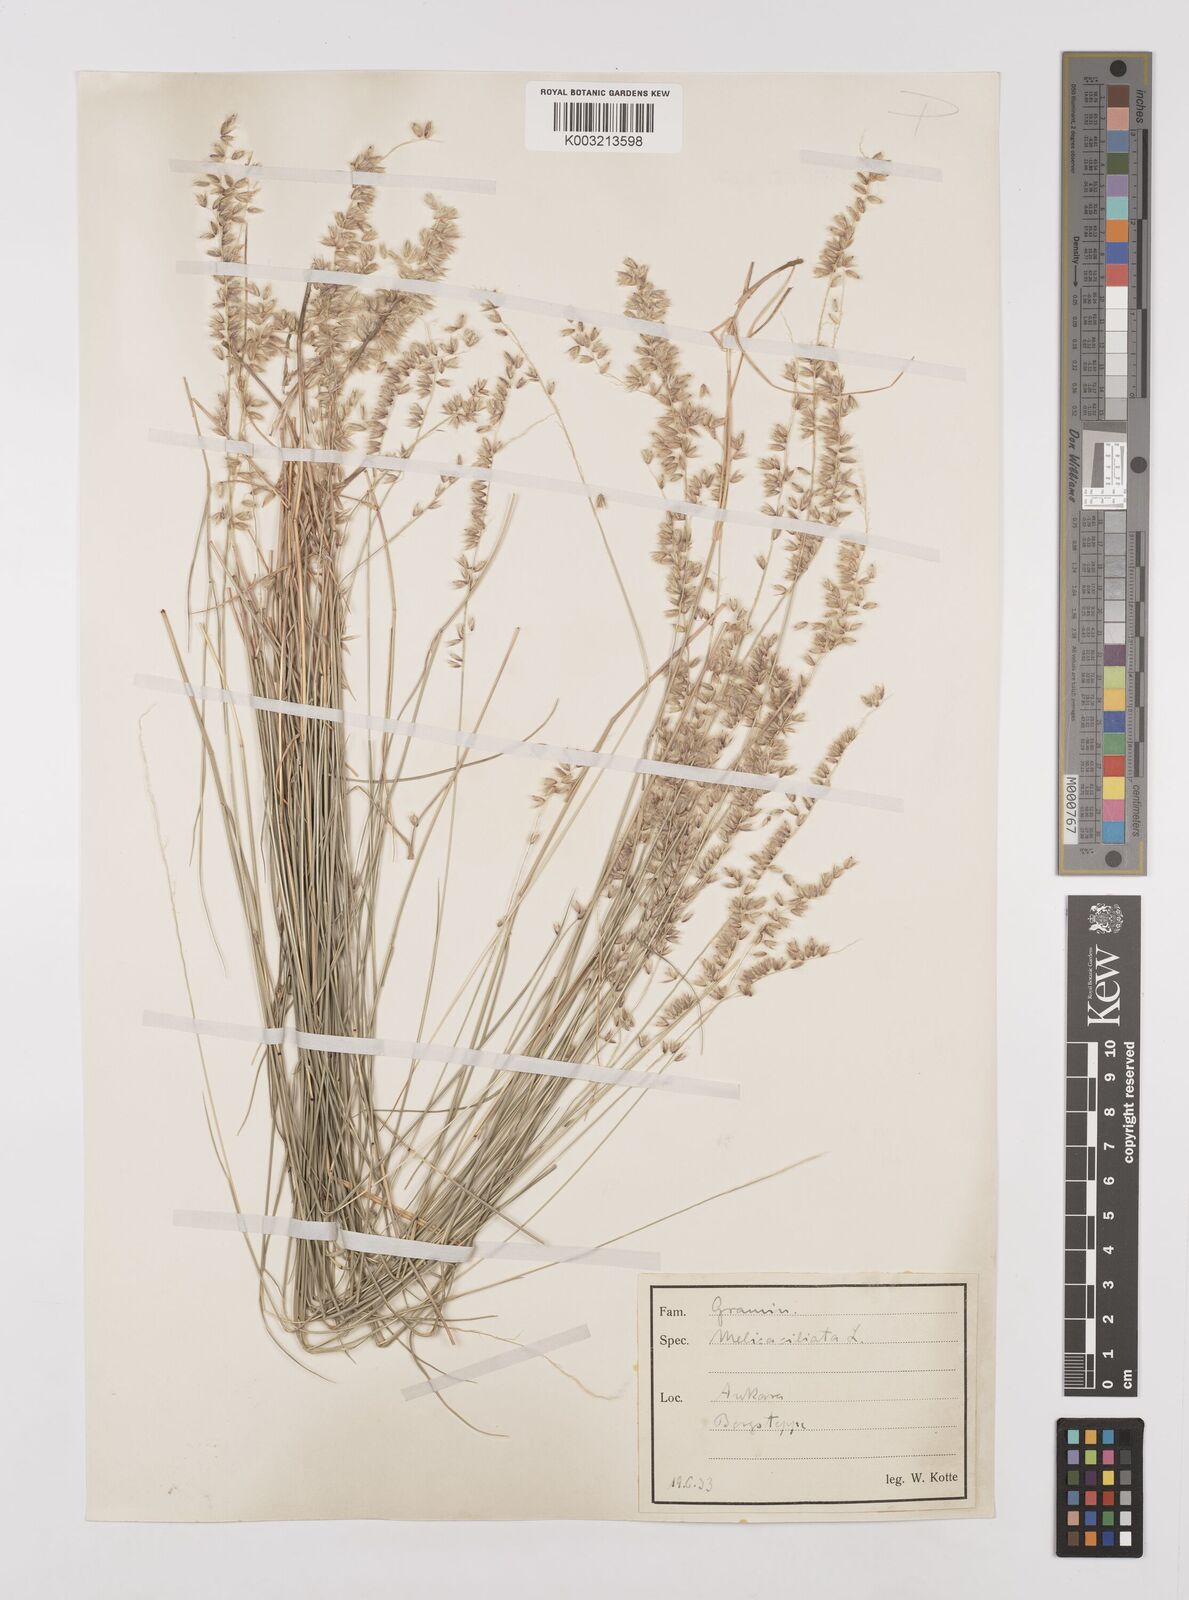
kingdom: Plantae
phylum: Tracheophyta
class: Liliopsida
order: Poales
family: Poaceae
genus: Melica
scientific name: Melica ciliata
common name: Hairy melicgrass
